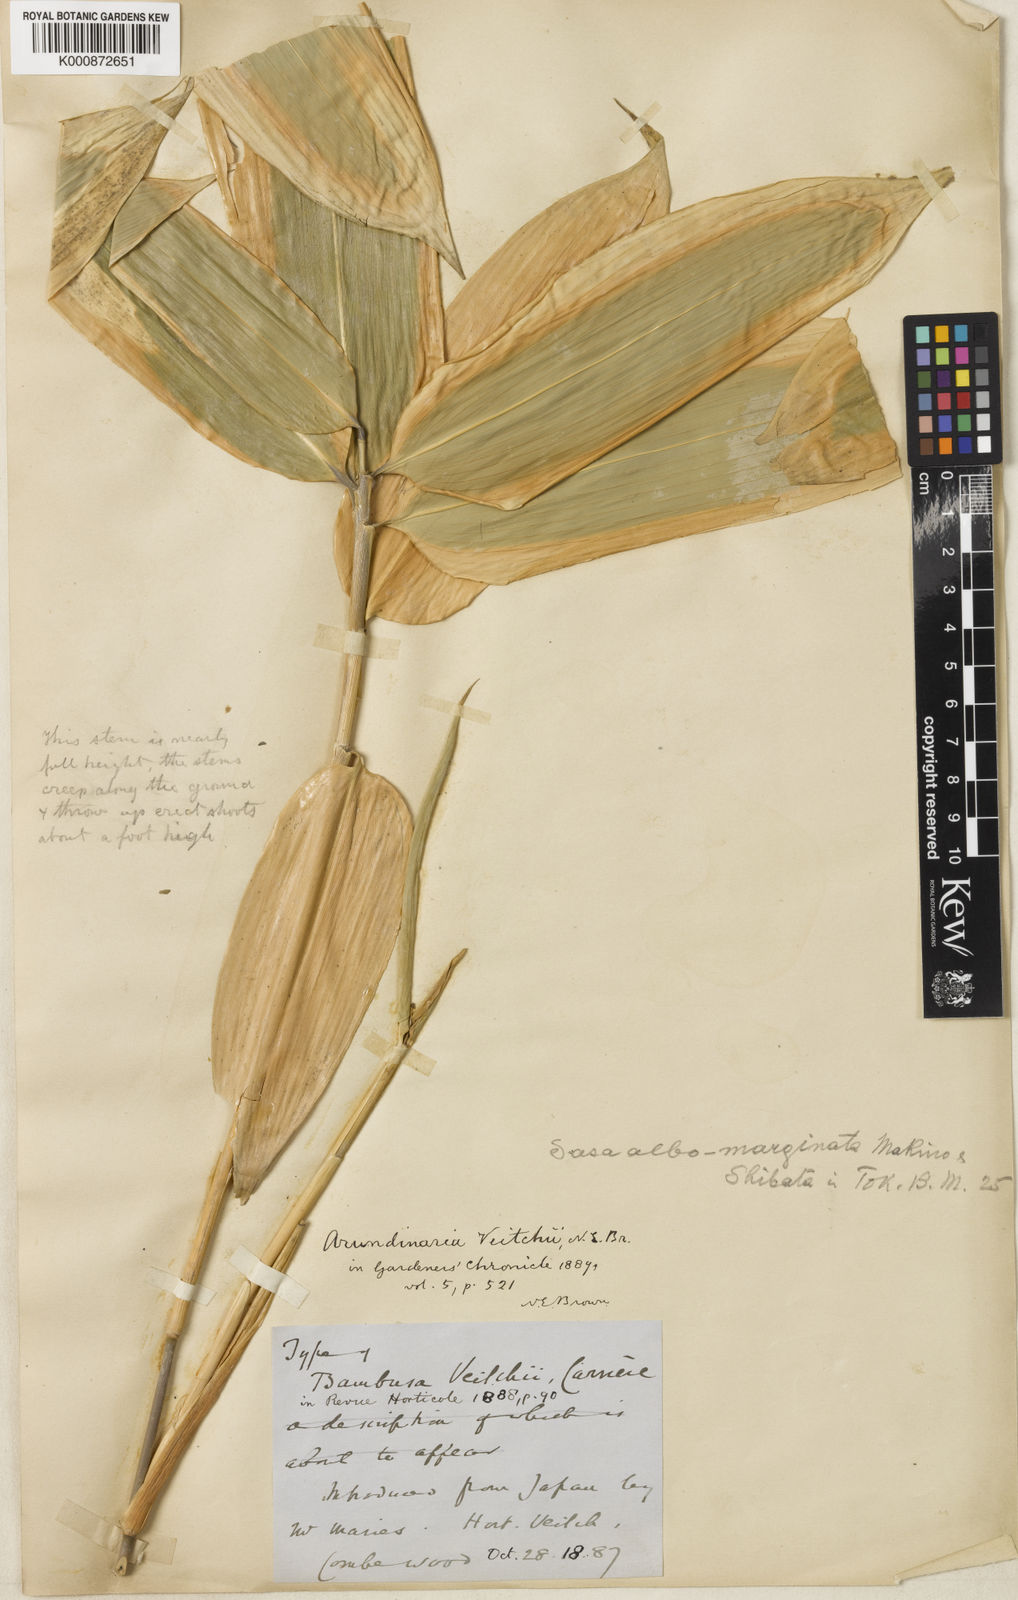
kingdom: Plantae
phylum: Tracheophyta
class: Liliopsida
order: Poales
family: Poaceae
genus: Sasa
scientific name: Sasa
